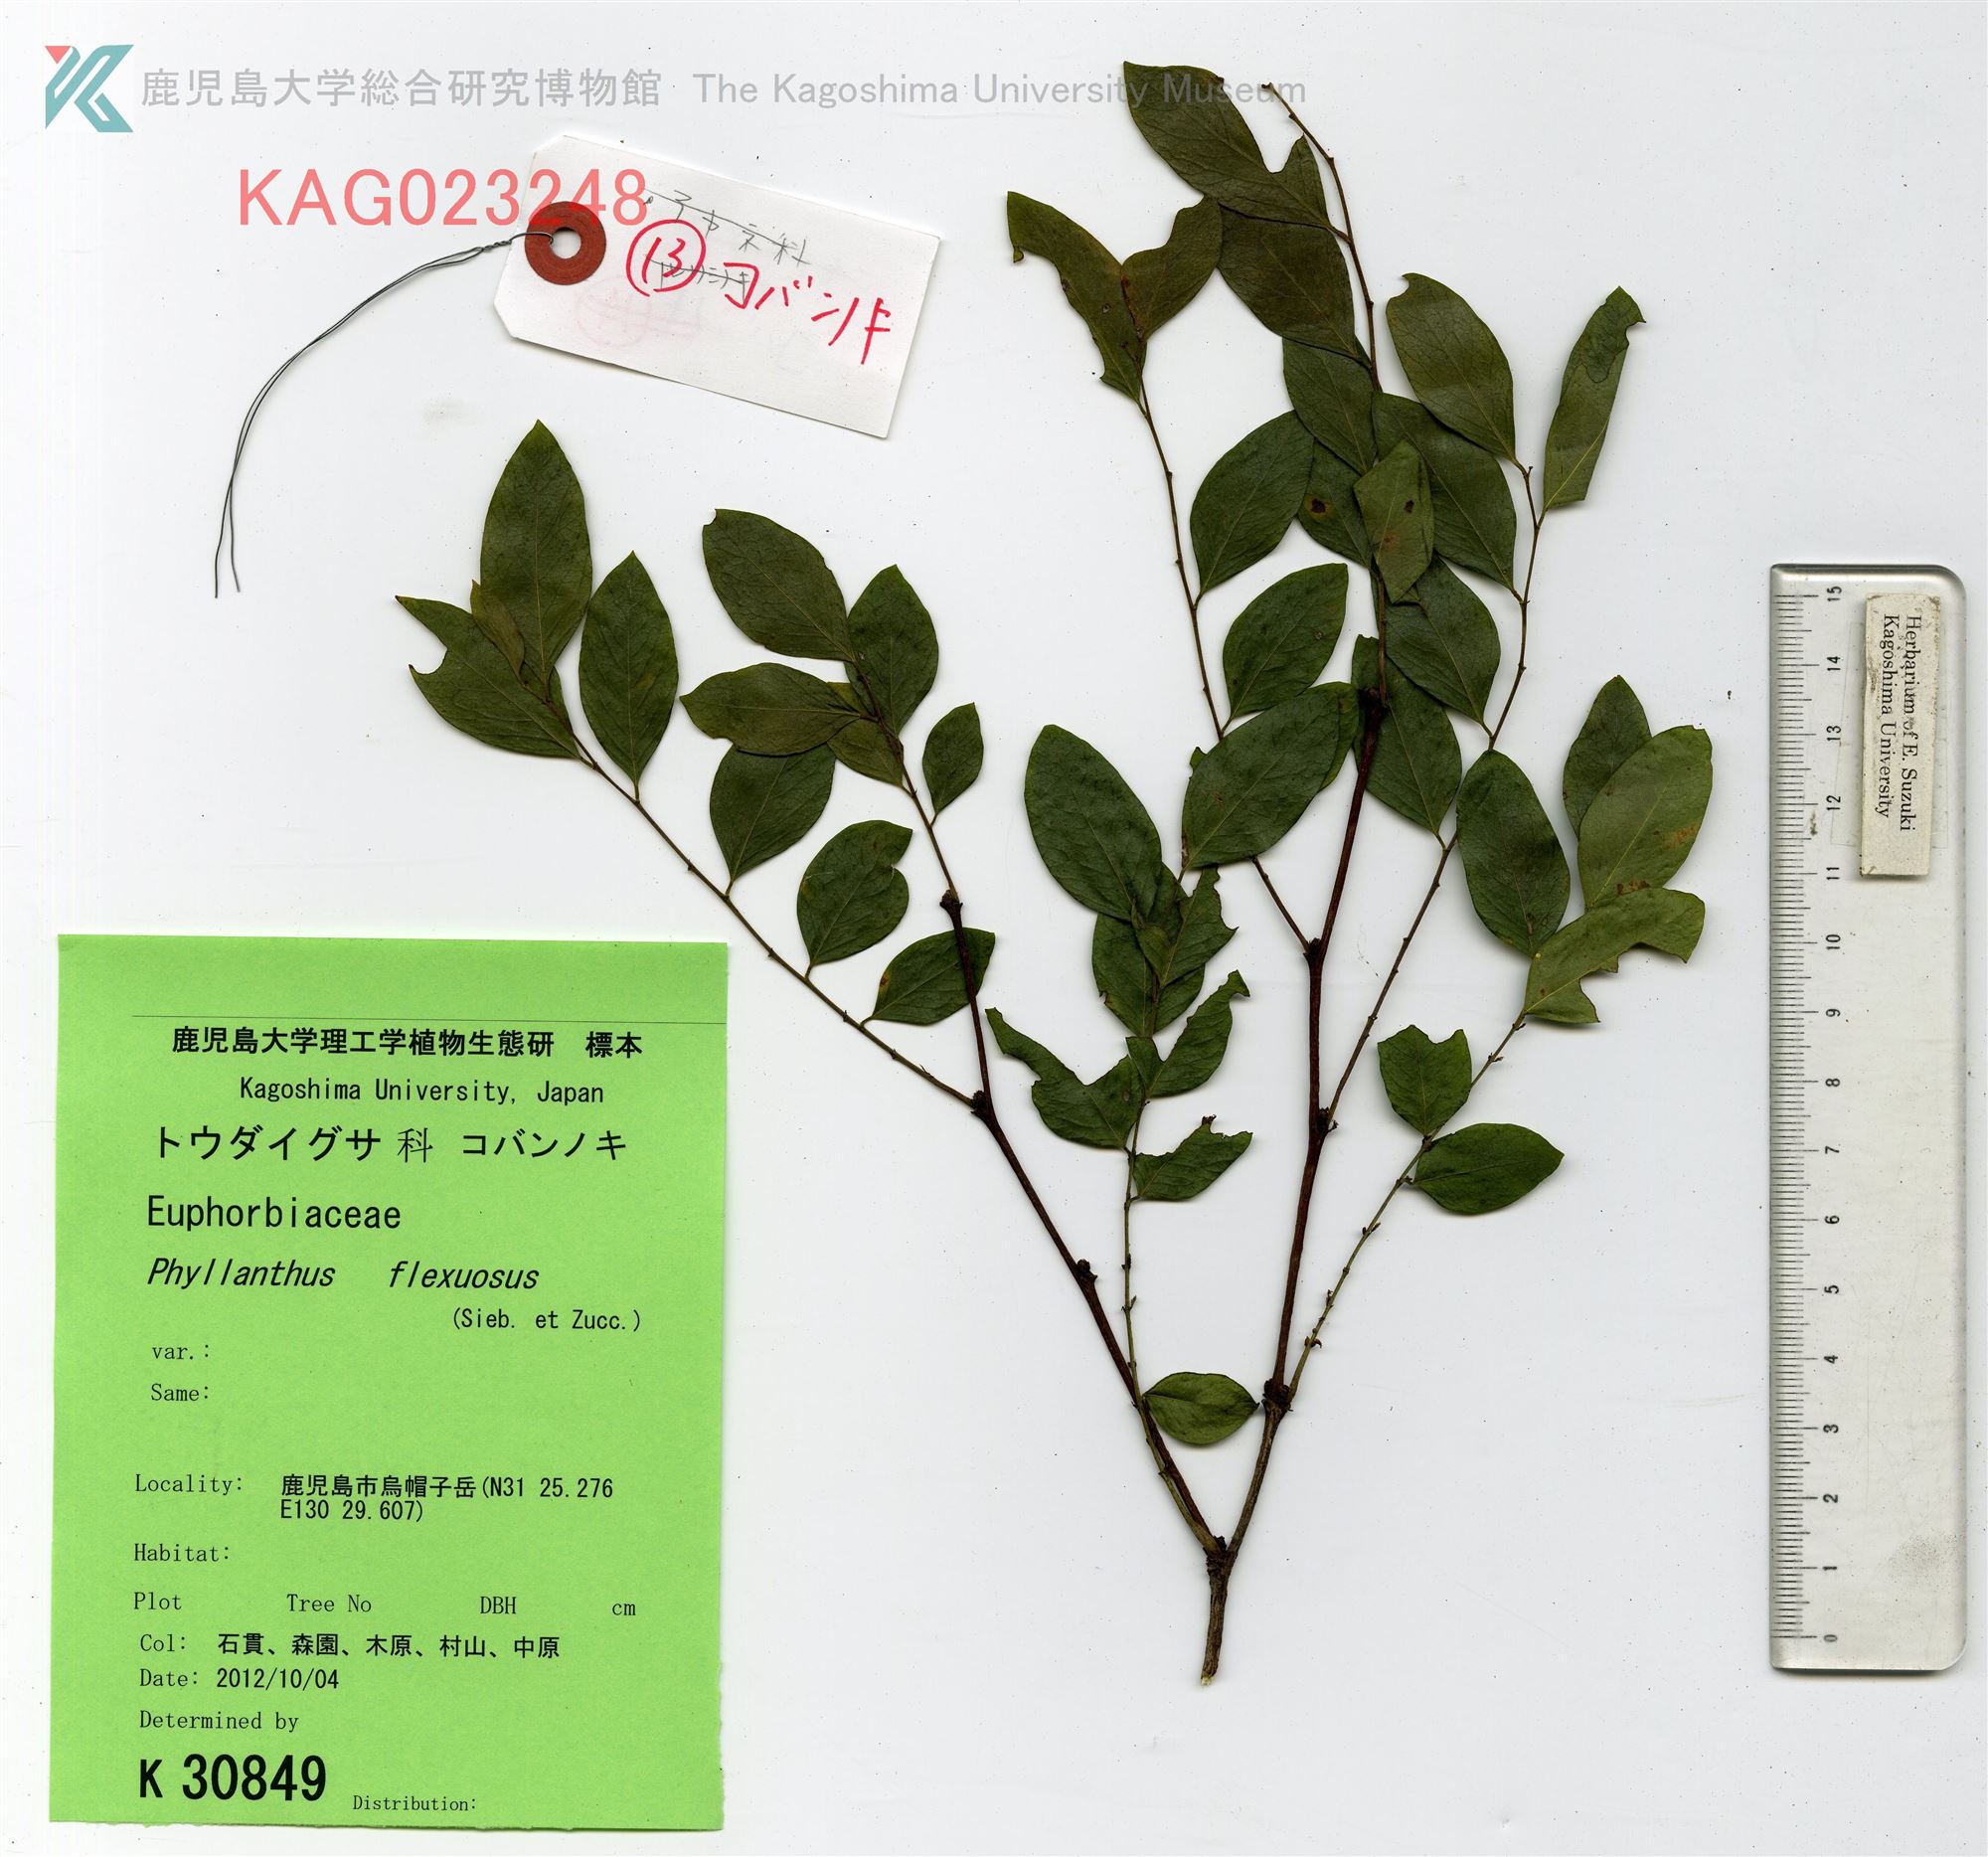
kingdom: Plantae
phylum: Tracheophyta
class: Magnoliopsida
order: Malpighiales
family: Phyllanthaceae
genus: Phyllanthus
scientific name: Phyllanthus flexuosus
